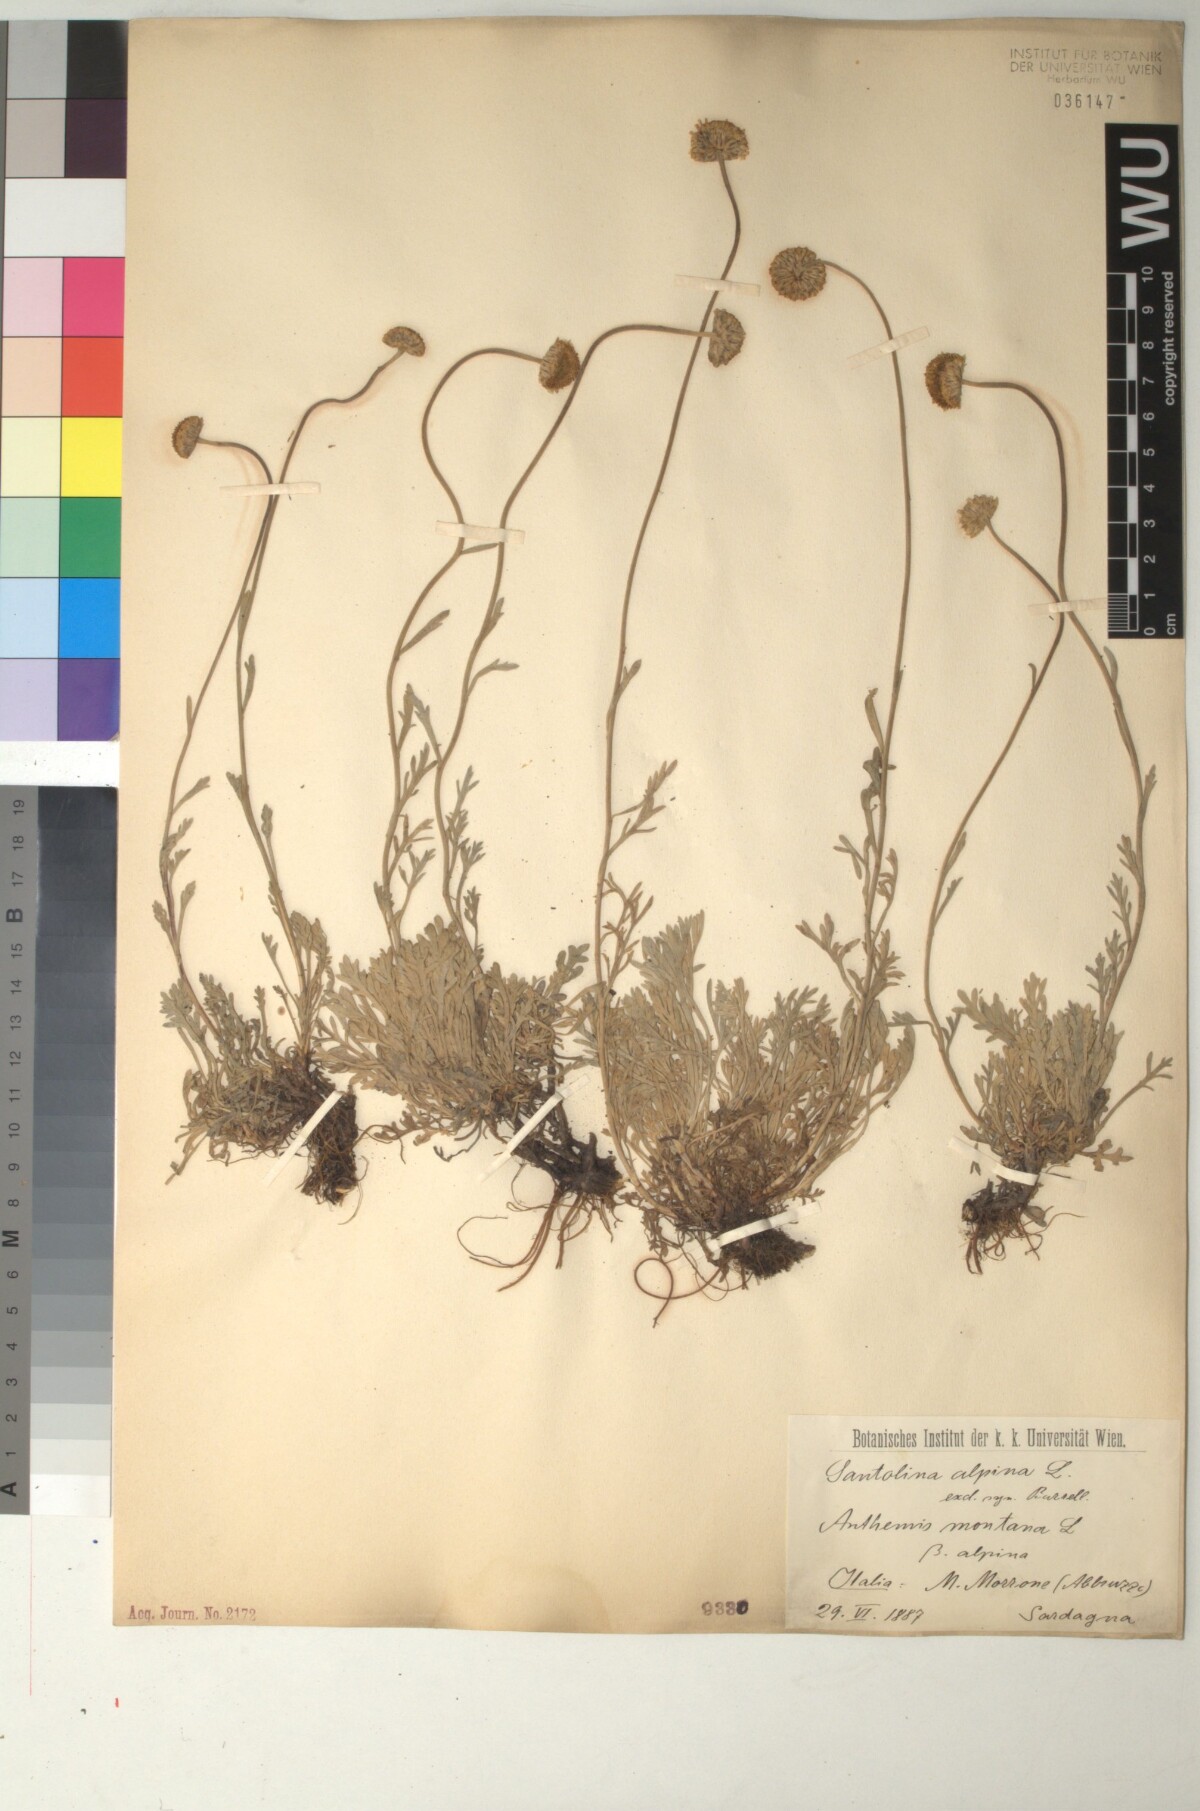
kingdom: Plantae
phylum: Tracheophyta
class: Magnoliopsida
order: Asterales
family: Asteraceae
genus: Anthemis
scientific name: Anthemis cretica
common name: Mountain dog-daisy
